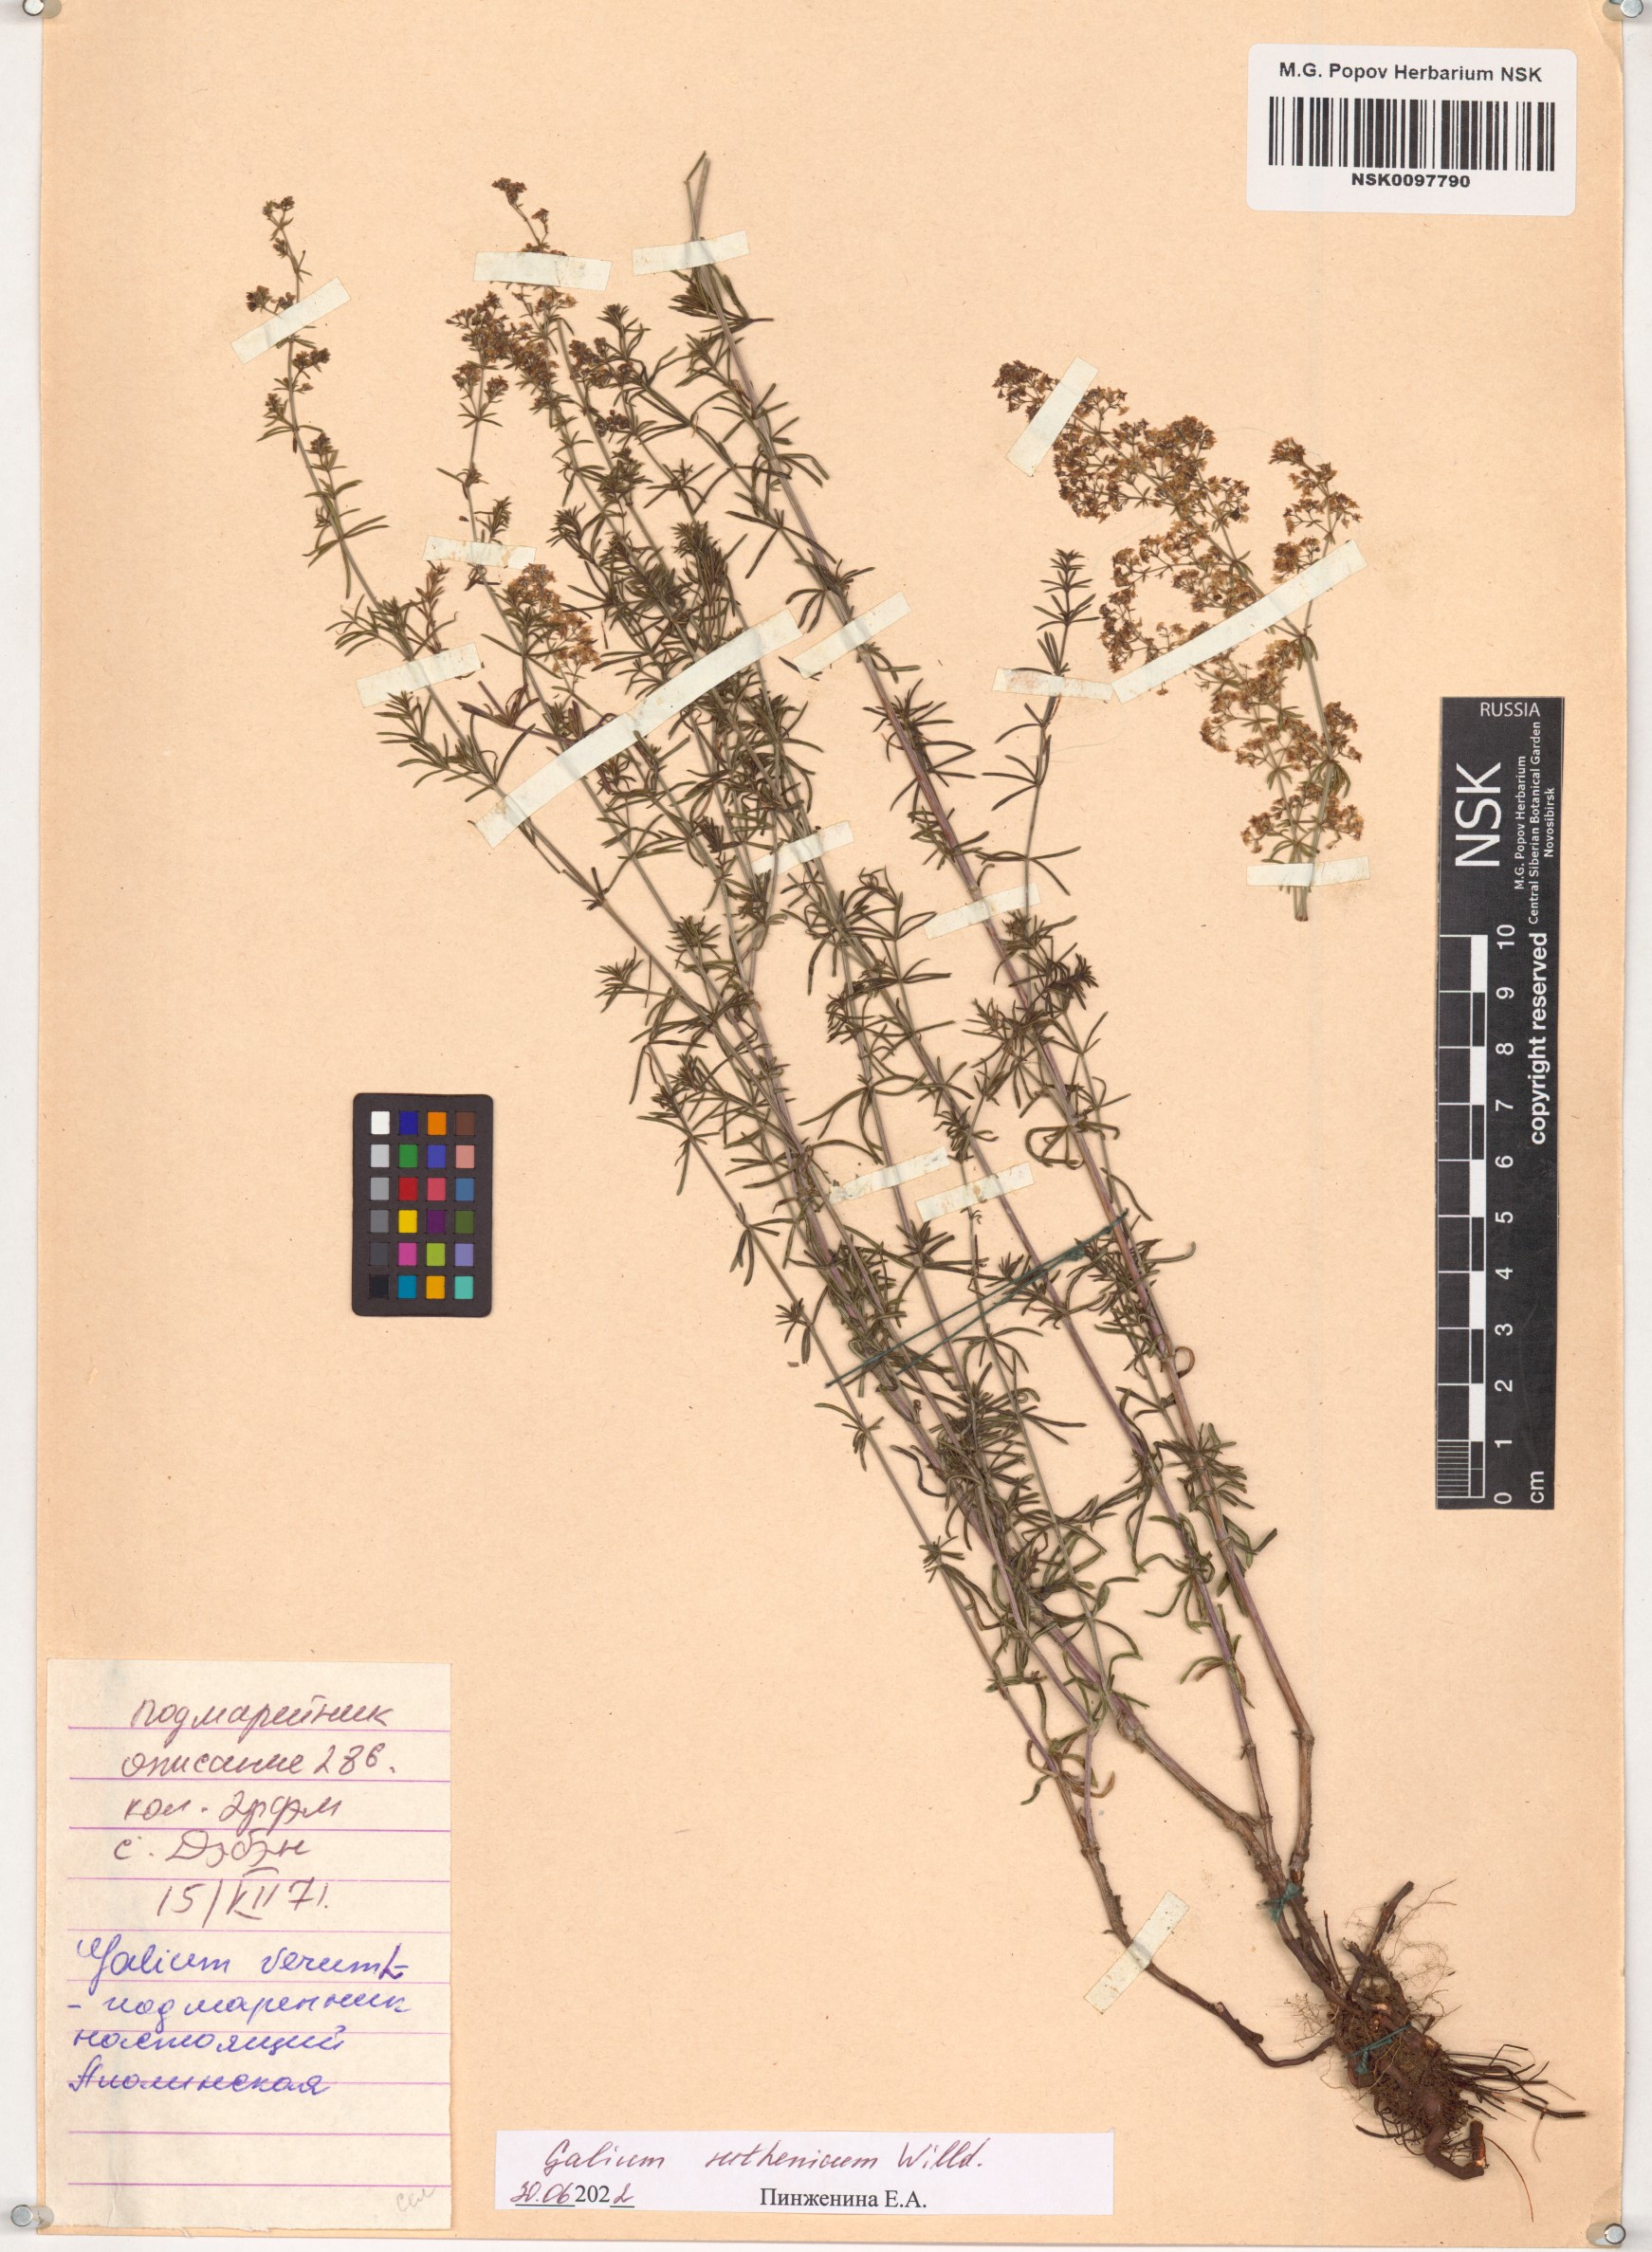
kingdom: Plantae
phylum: Tracheophyta
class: Magnoliopsida
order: Gentianales
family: Rubiaceae
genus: Galium
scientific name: Galium verum
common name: Lady's bedstraw
